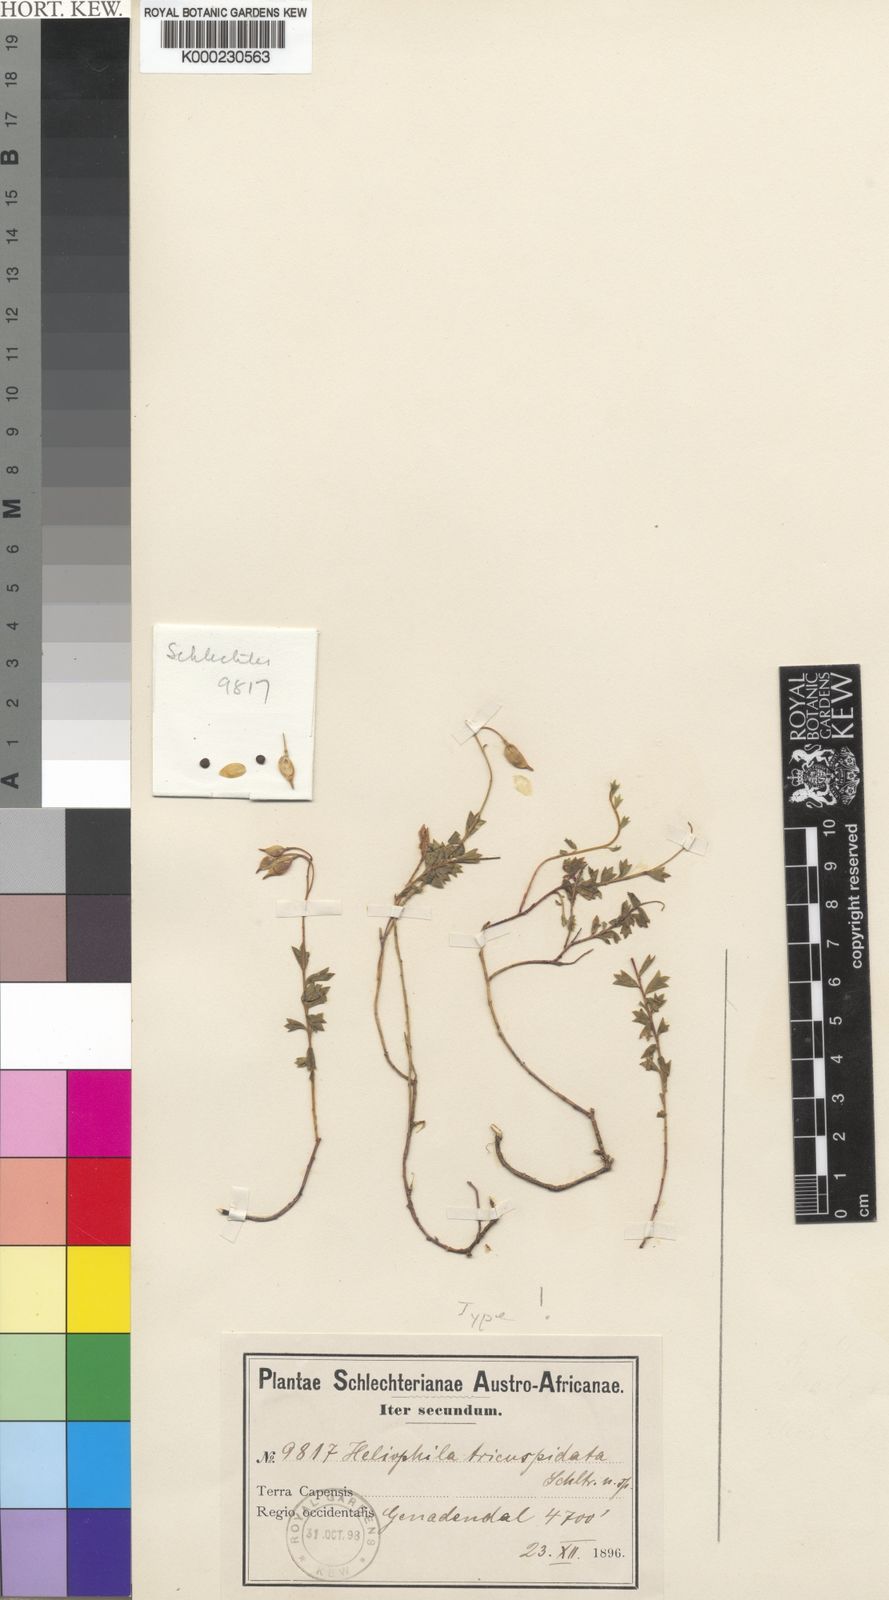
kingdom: Plantae
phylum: Tracheophyta
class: Magnoliopsida
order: Brassicales
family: Brassicaceae
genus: Heliophila
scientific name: Heliophila tricuspidata
